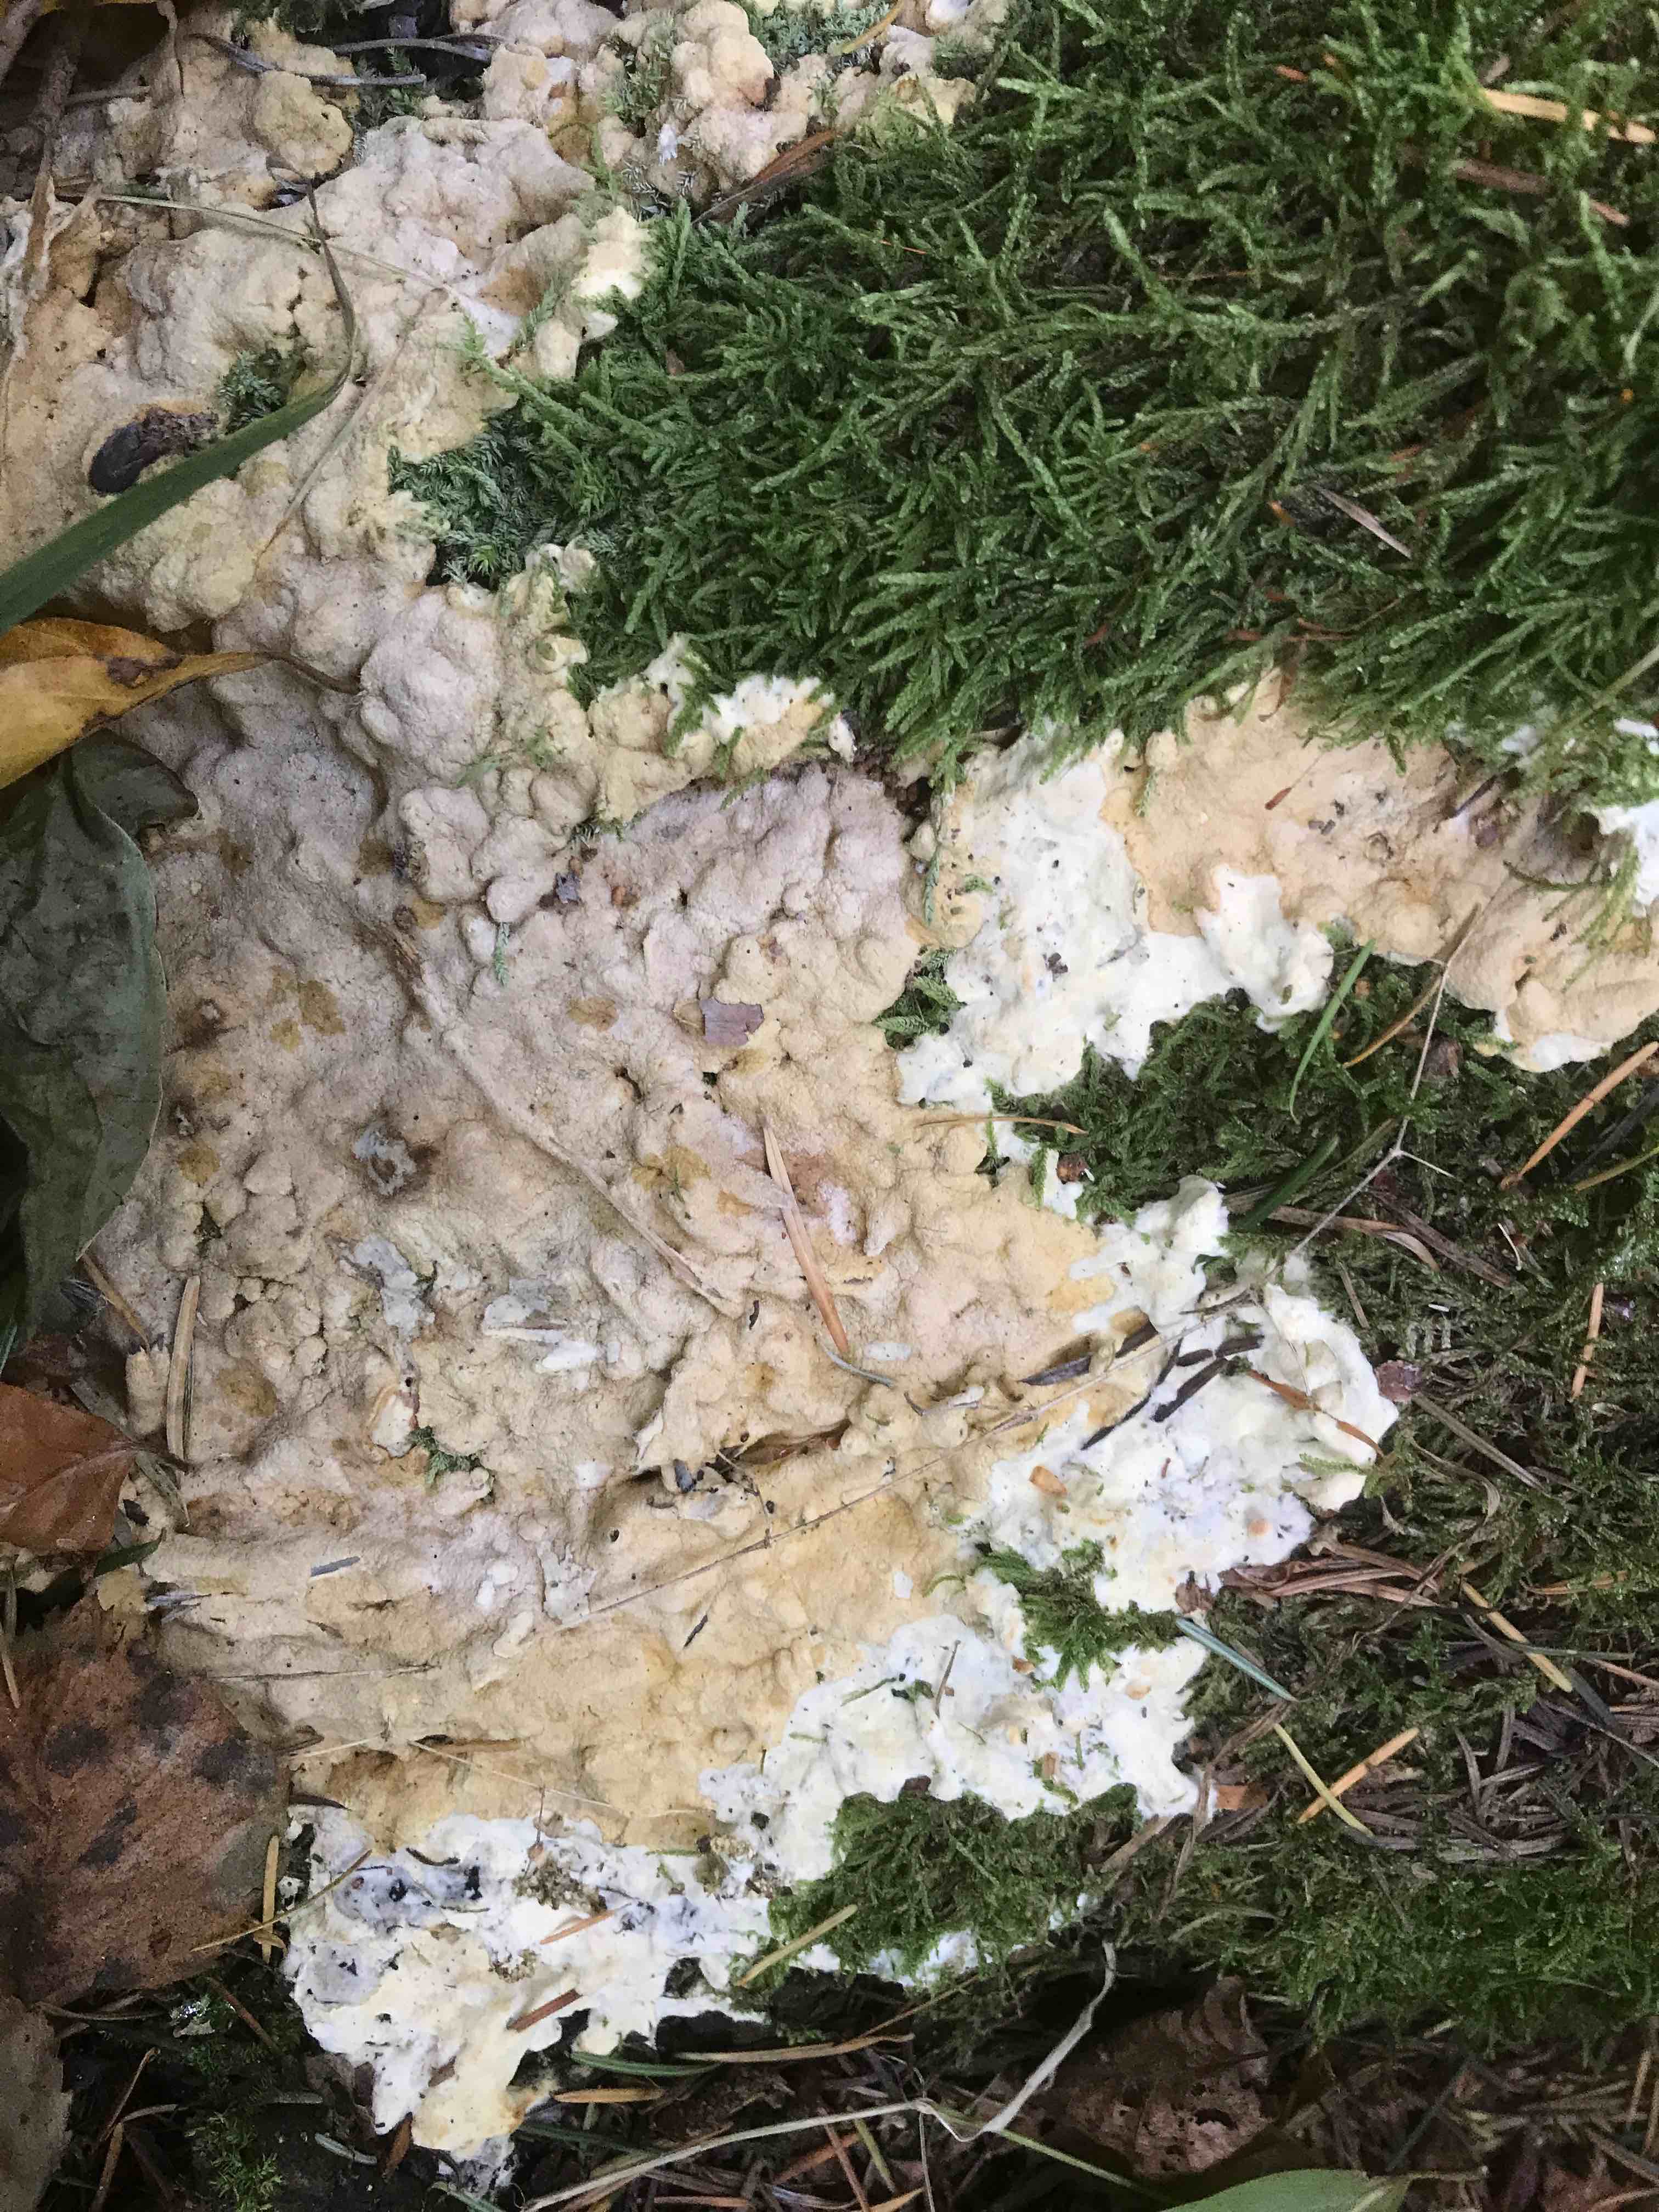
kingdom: Fungi
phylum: Ascomycota
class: Sordariomycetes
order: Hypocreales
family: Hypocreaceae
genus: Trichoderma
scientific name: Trichoderma citrinum
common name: udbredt kødkerne
